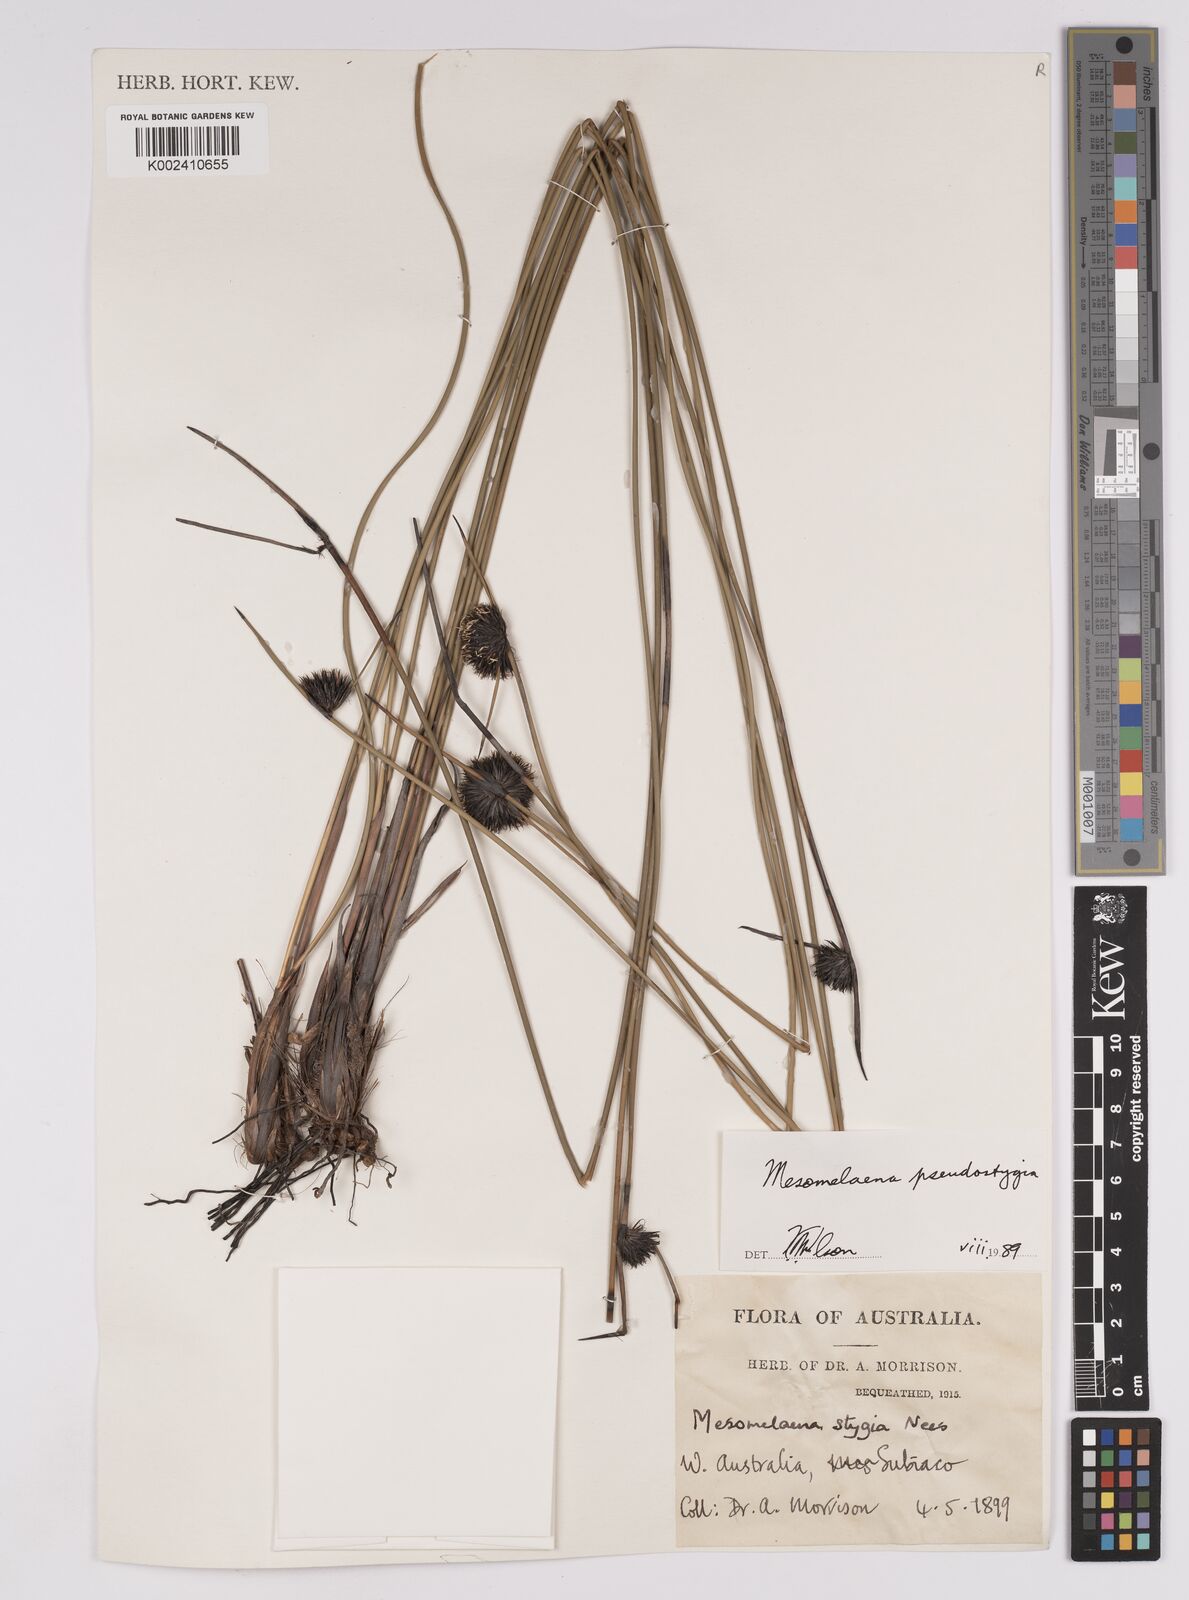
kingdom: Plantae
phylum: Tracheophyta
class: Liliopsida
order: Poales
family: Cyperaceae
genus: Mesomelaena
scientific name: Mesomelaena pseudostygia
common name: Semaphore sedge
